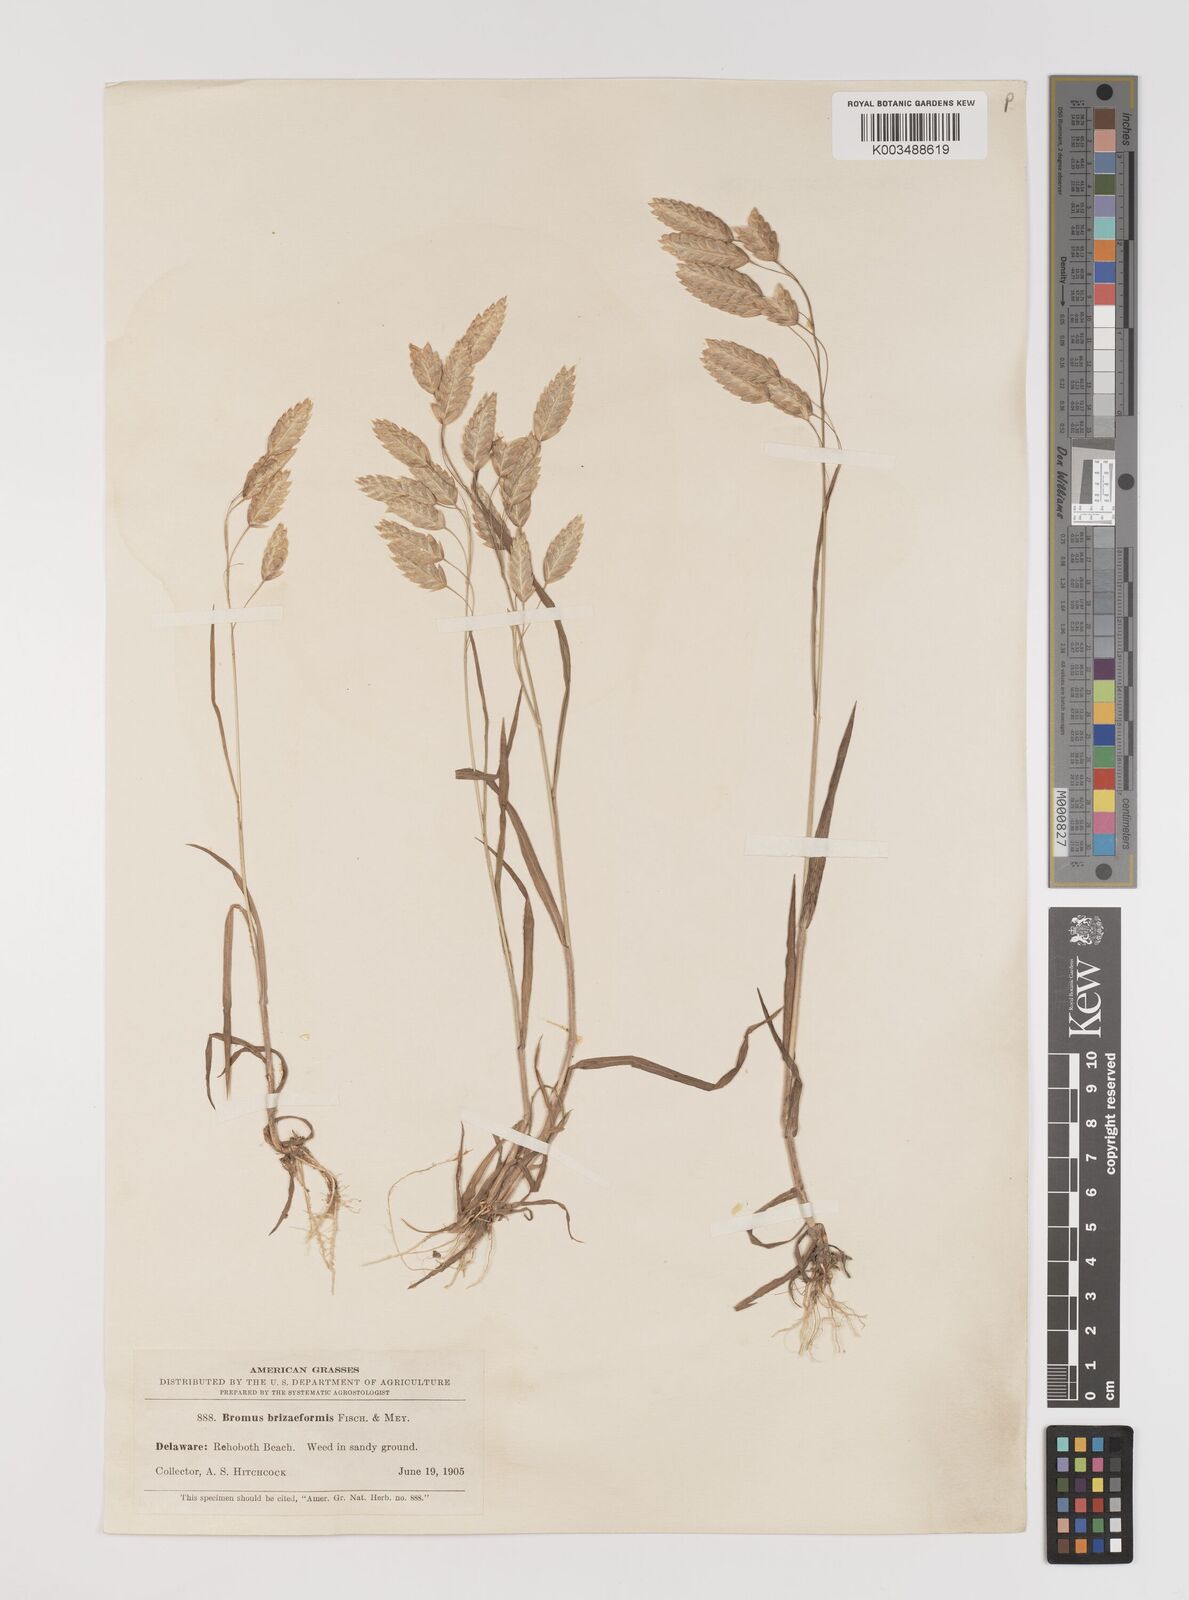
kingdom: Plantae
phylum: Tracheophyta
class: Liliopsida
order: Poales
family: Poaceae
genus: Bromus
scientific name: Bromus briziformis
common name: Rattlesnake brome
